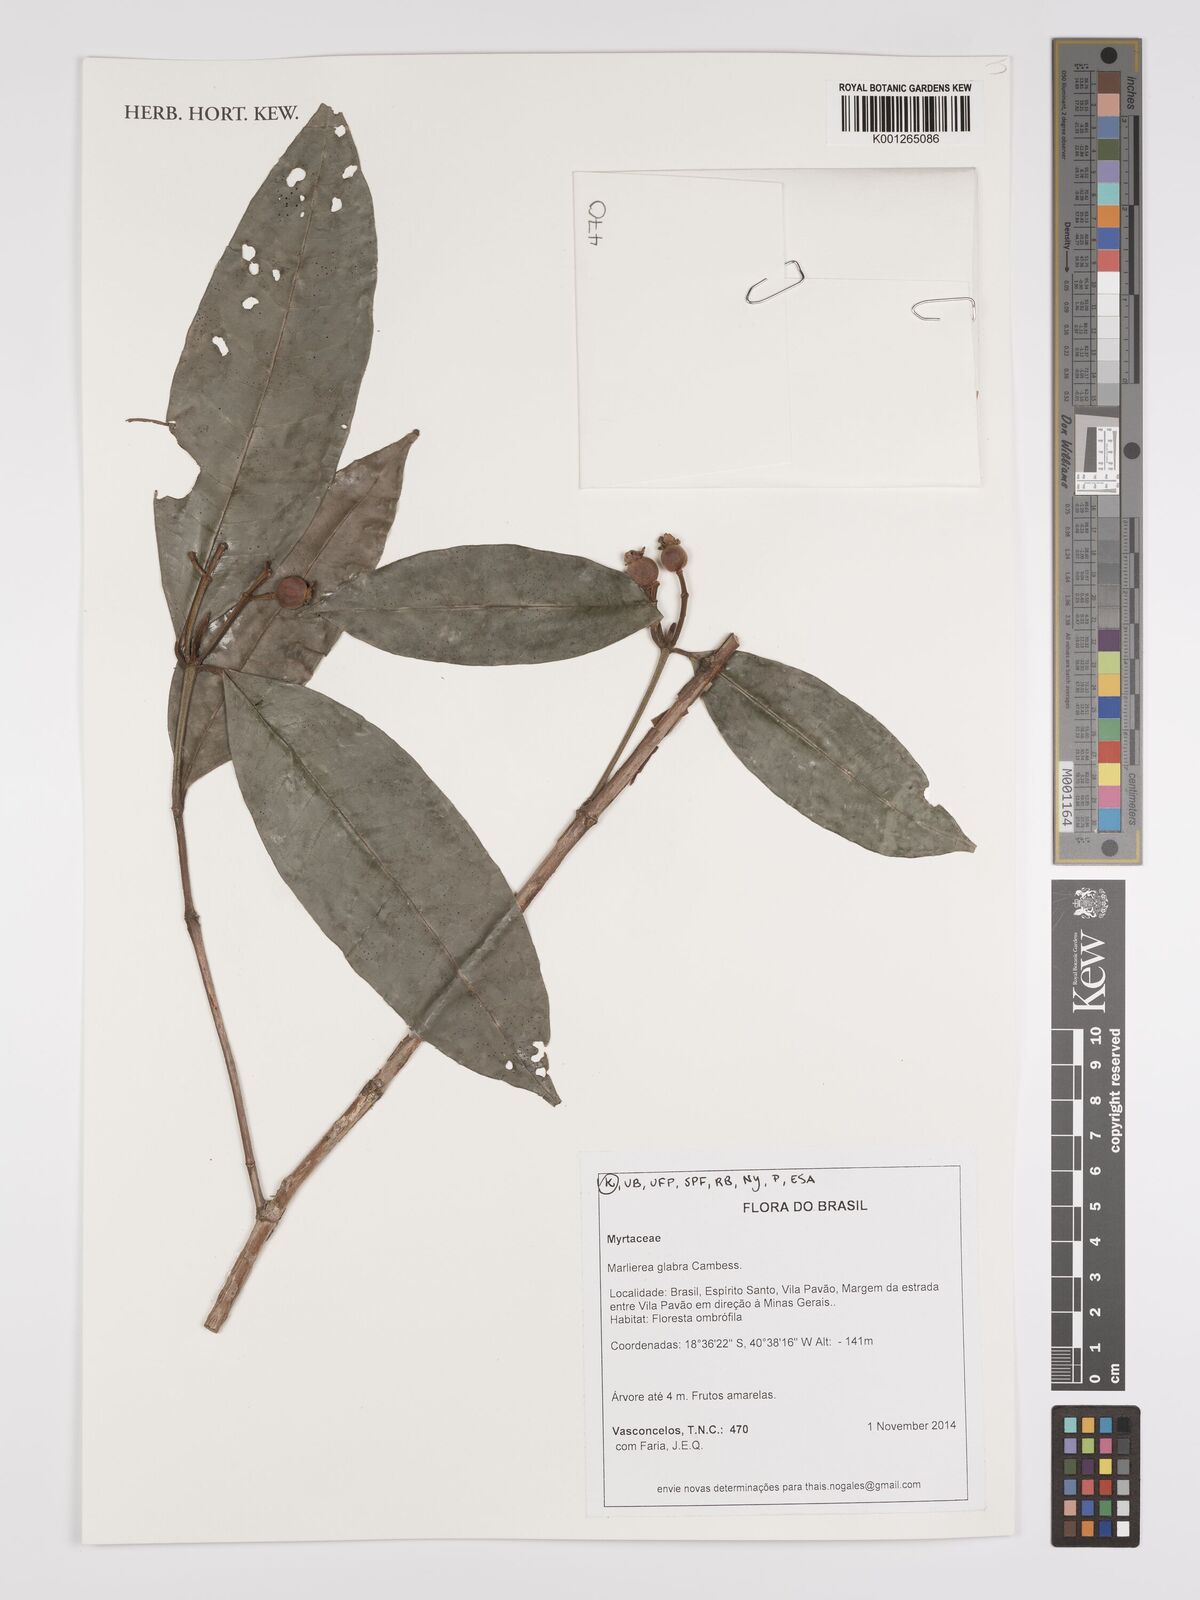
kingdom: Plantae
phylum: Tracheophyta
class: Magnoliopsida
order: Myrtales
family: Myrtaceae
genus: Myrcia
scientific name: Myrcia neoglabra
